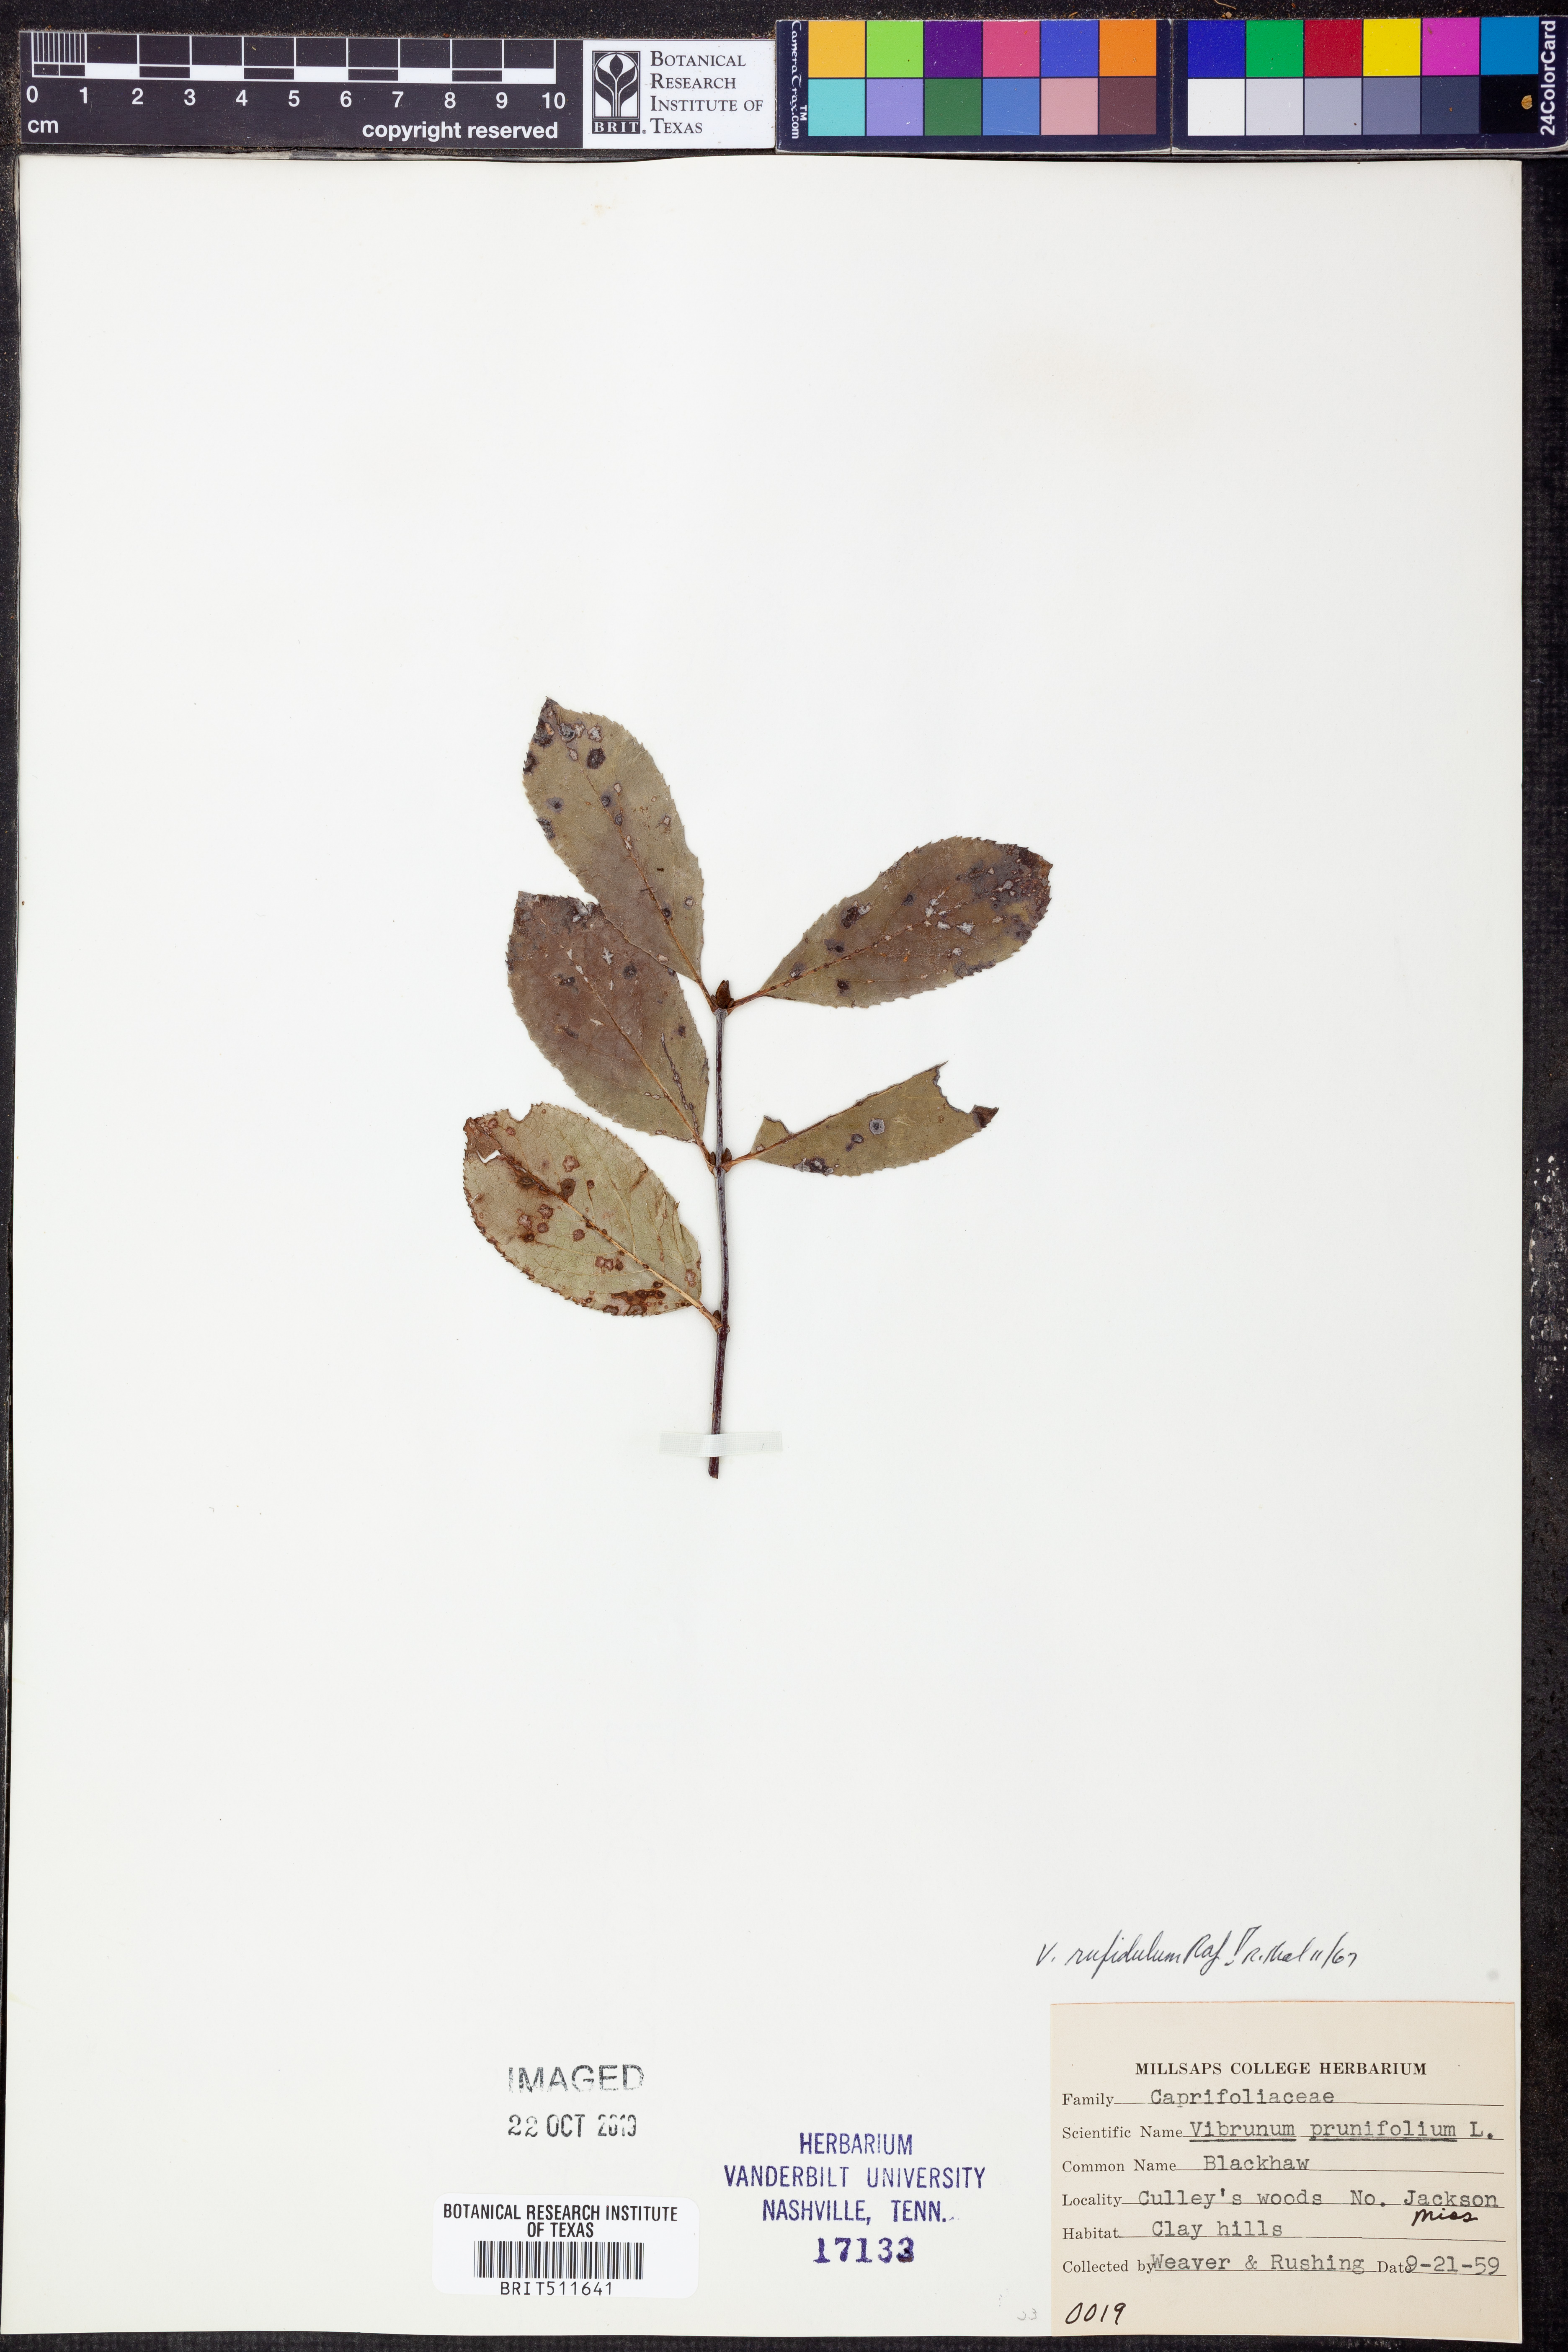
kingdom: Plantae
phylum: Tracheophyta
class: Magnoliopsida
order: Dipsacales
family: Viburnaceae
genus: Viburnum
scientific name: Viburnum rufidulum
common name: Blue haw
